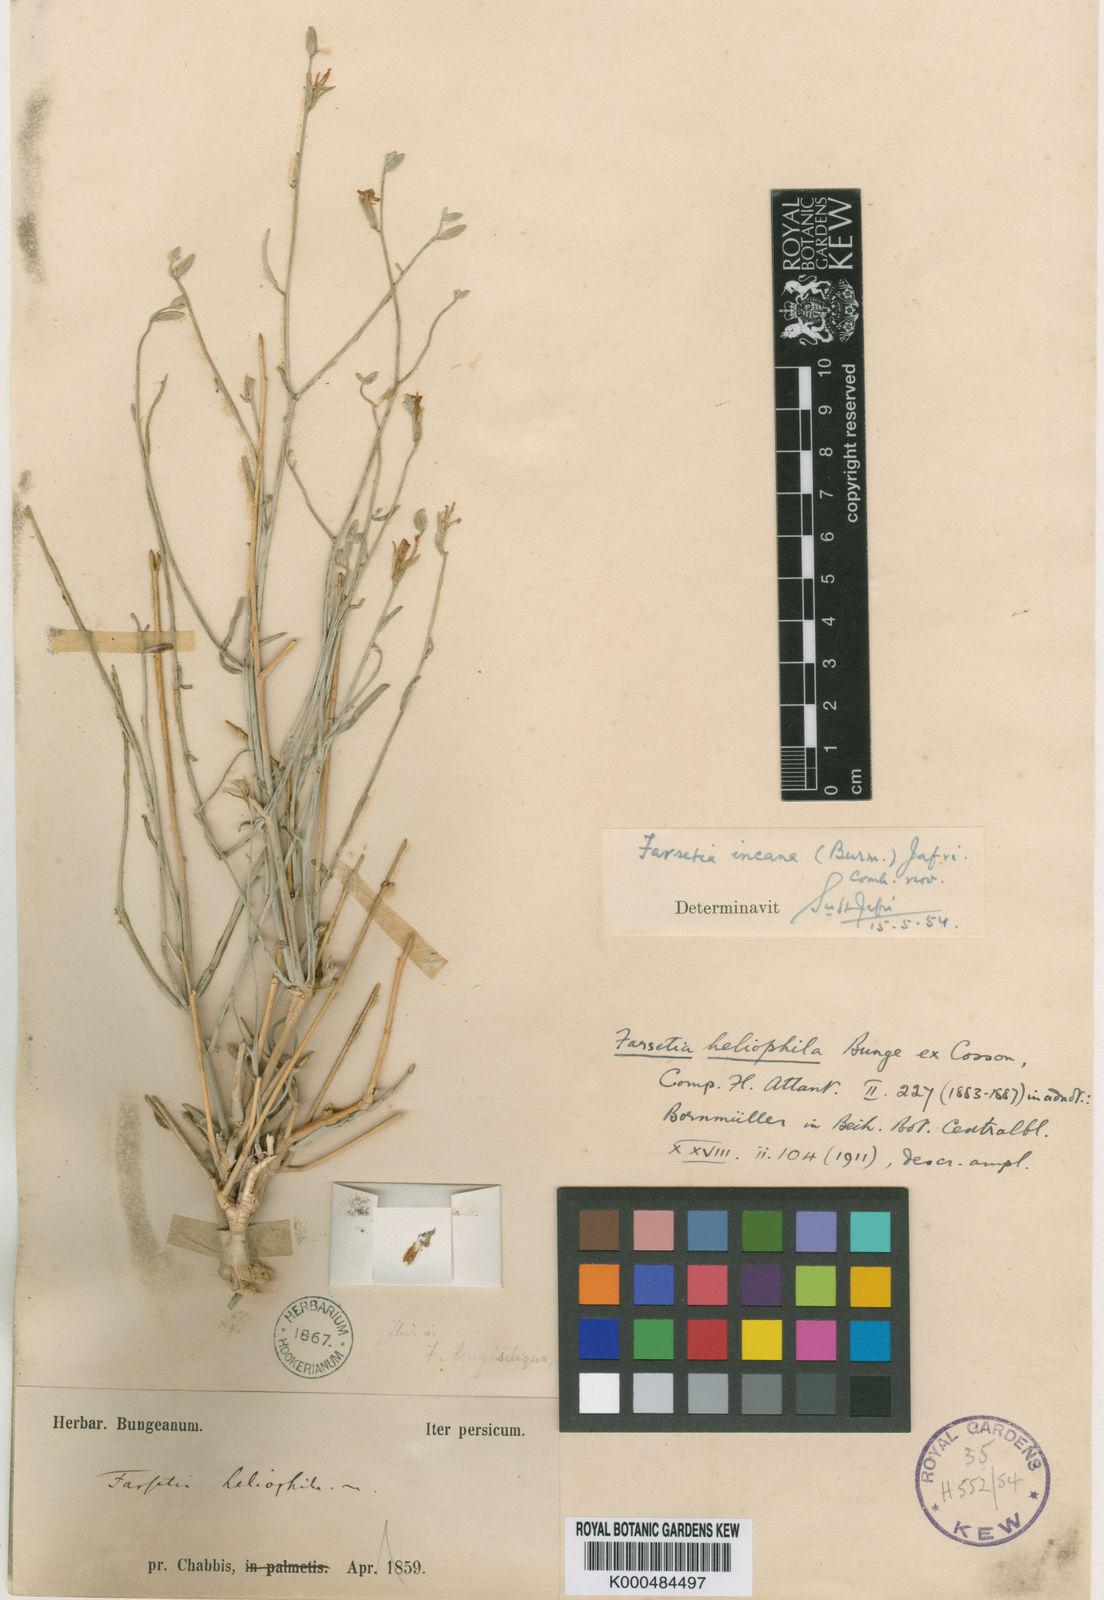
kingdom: Plantae
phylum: Tracheophyta
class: Magnoliopsida
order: Brassicales
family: Brassicaceae
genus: Farsetia
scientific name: Farsetia heliophila
